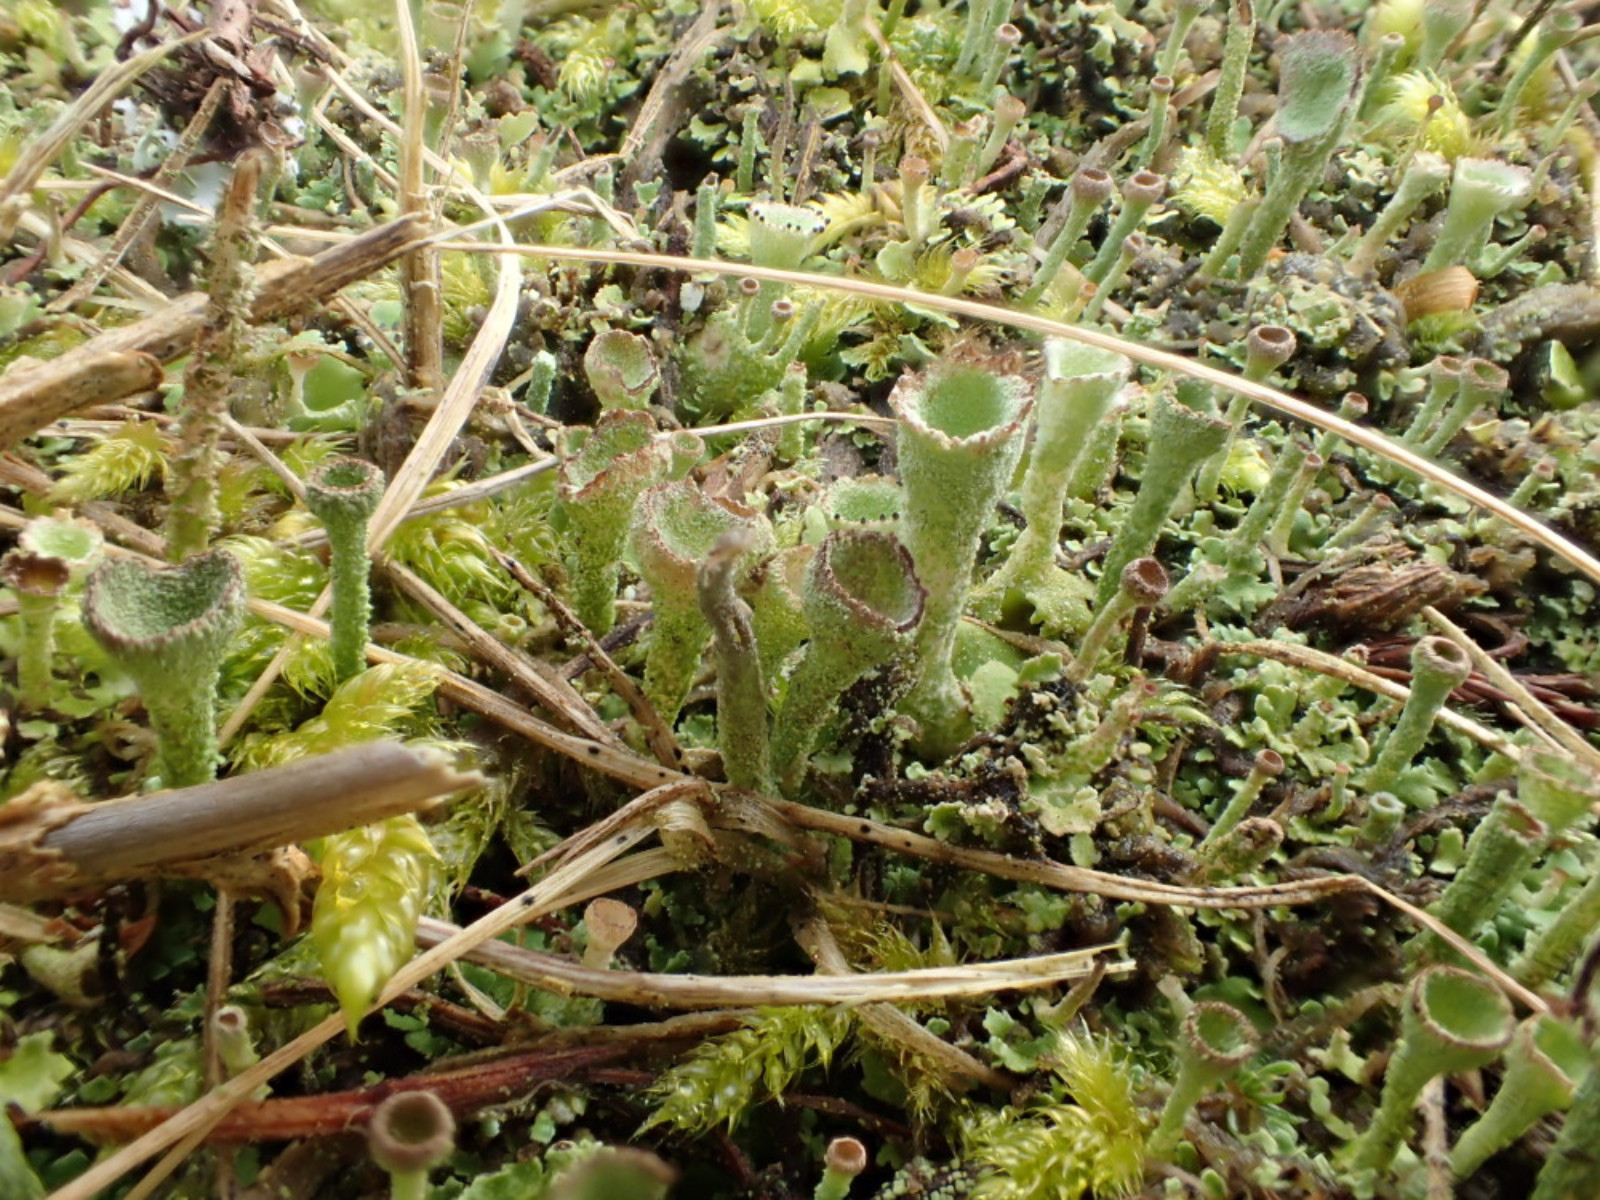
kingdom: Fungi
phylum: Ascomycota
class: Lecanoromycetes
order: Lecanorales
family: Cladoniaceae
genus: Cladonia
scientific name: Cladonia
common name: brungrøn bægerlav
